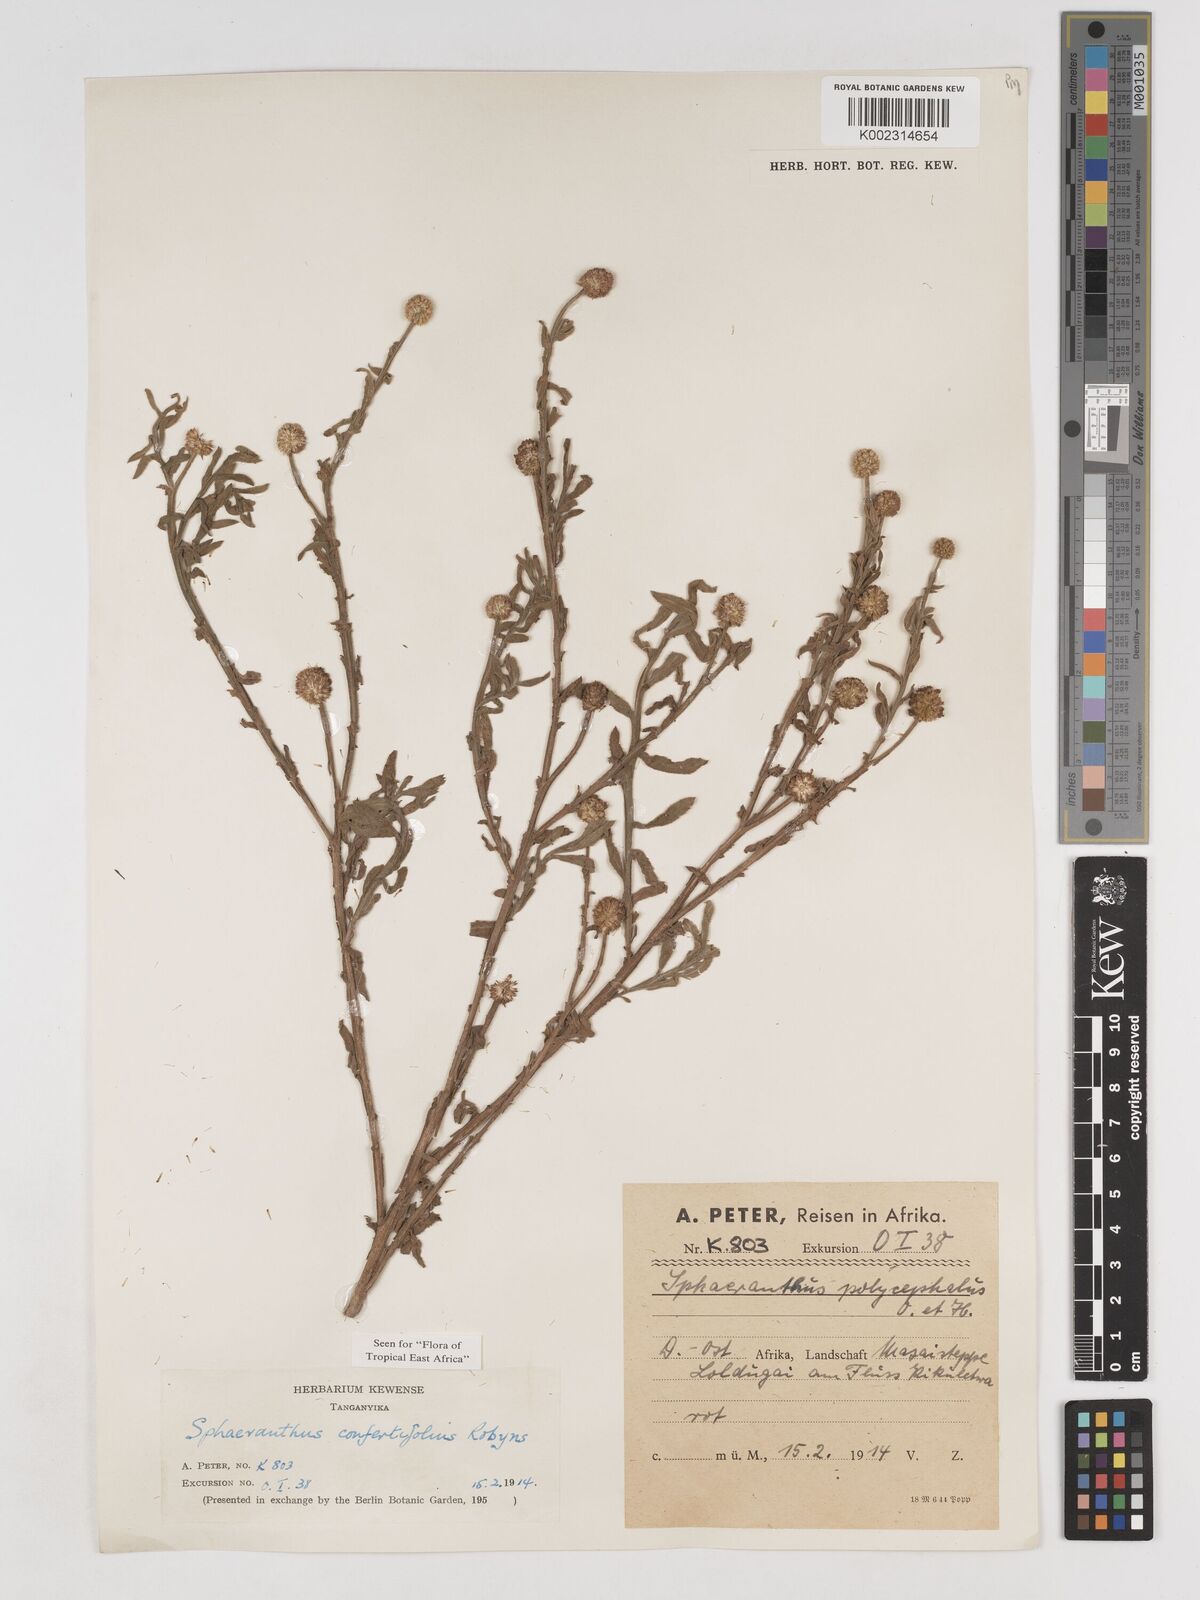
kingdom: Plantae
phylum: Tracheophyta
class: Magnoliopsida
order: Asterales
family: Asteraceae
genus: Sphaeranthus
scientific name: Sphaeranthus confertifolius
